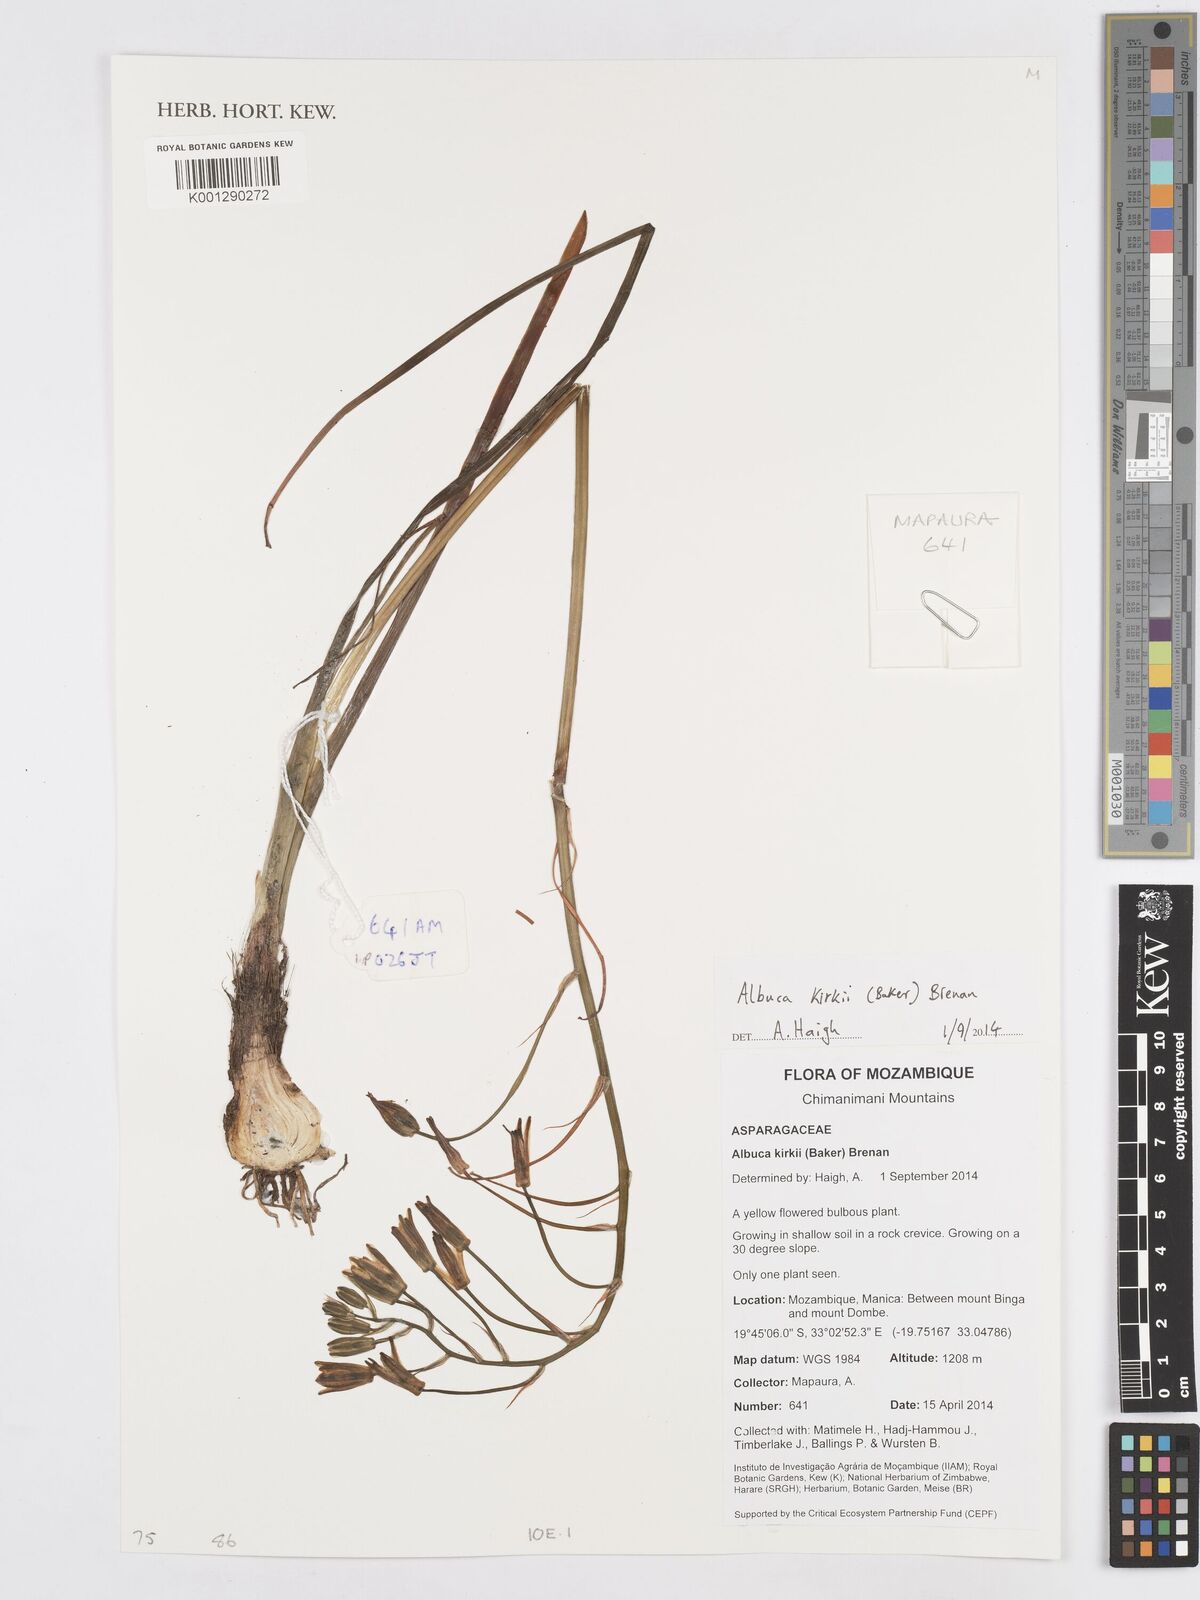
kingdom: Plantae
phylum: Tracheophyta
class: Liliopsida
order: Asparagales
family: Asparagaceae
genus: Albuca
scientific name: Albuca kirkii
